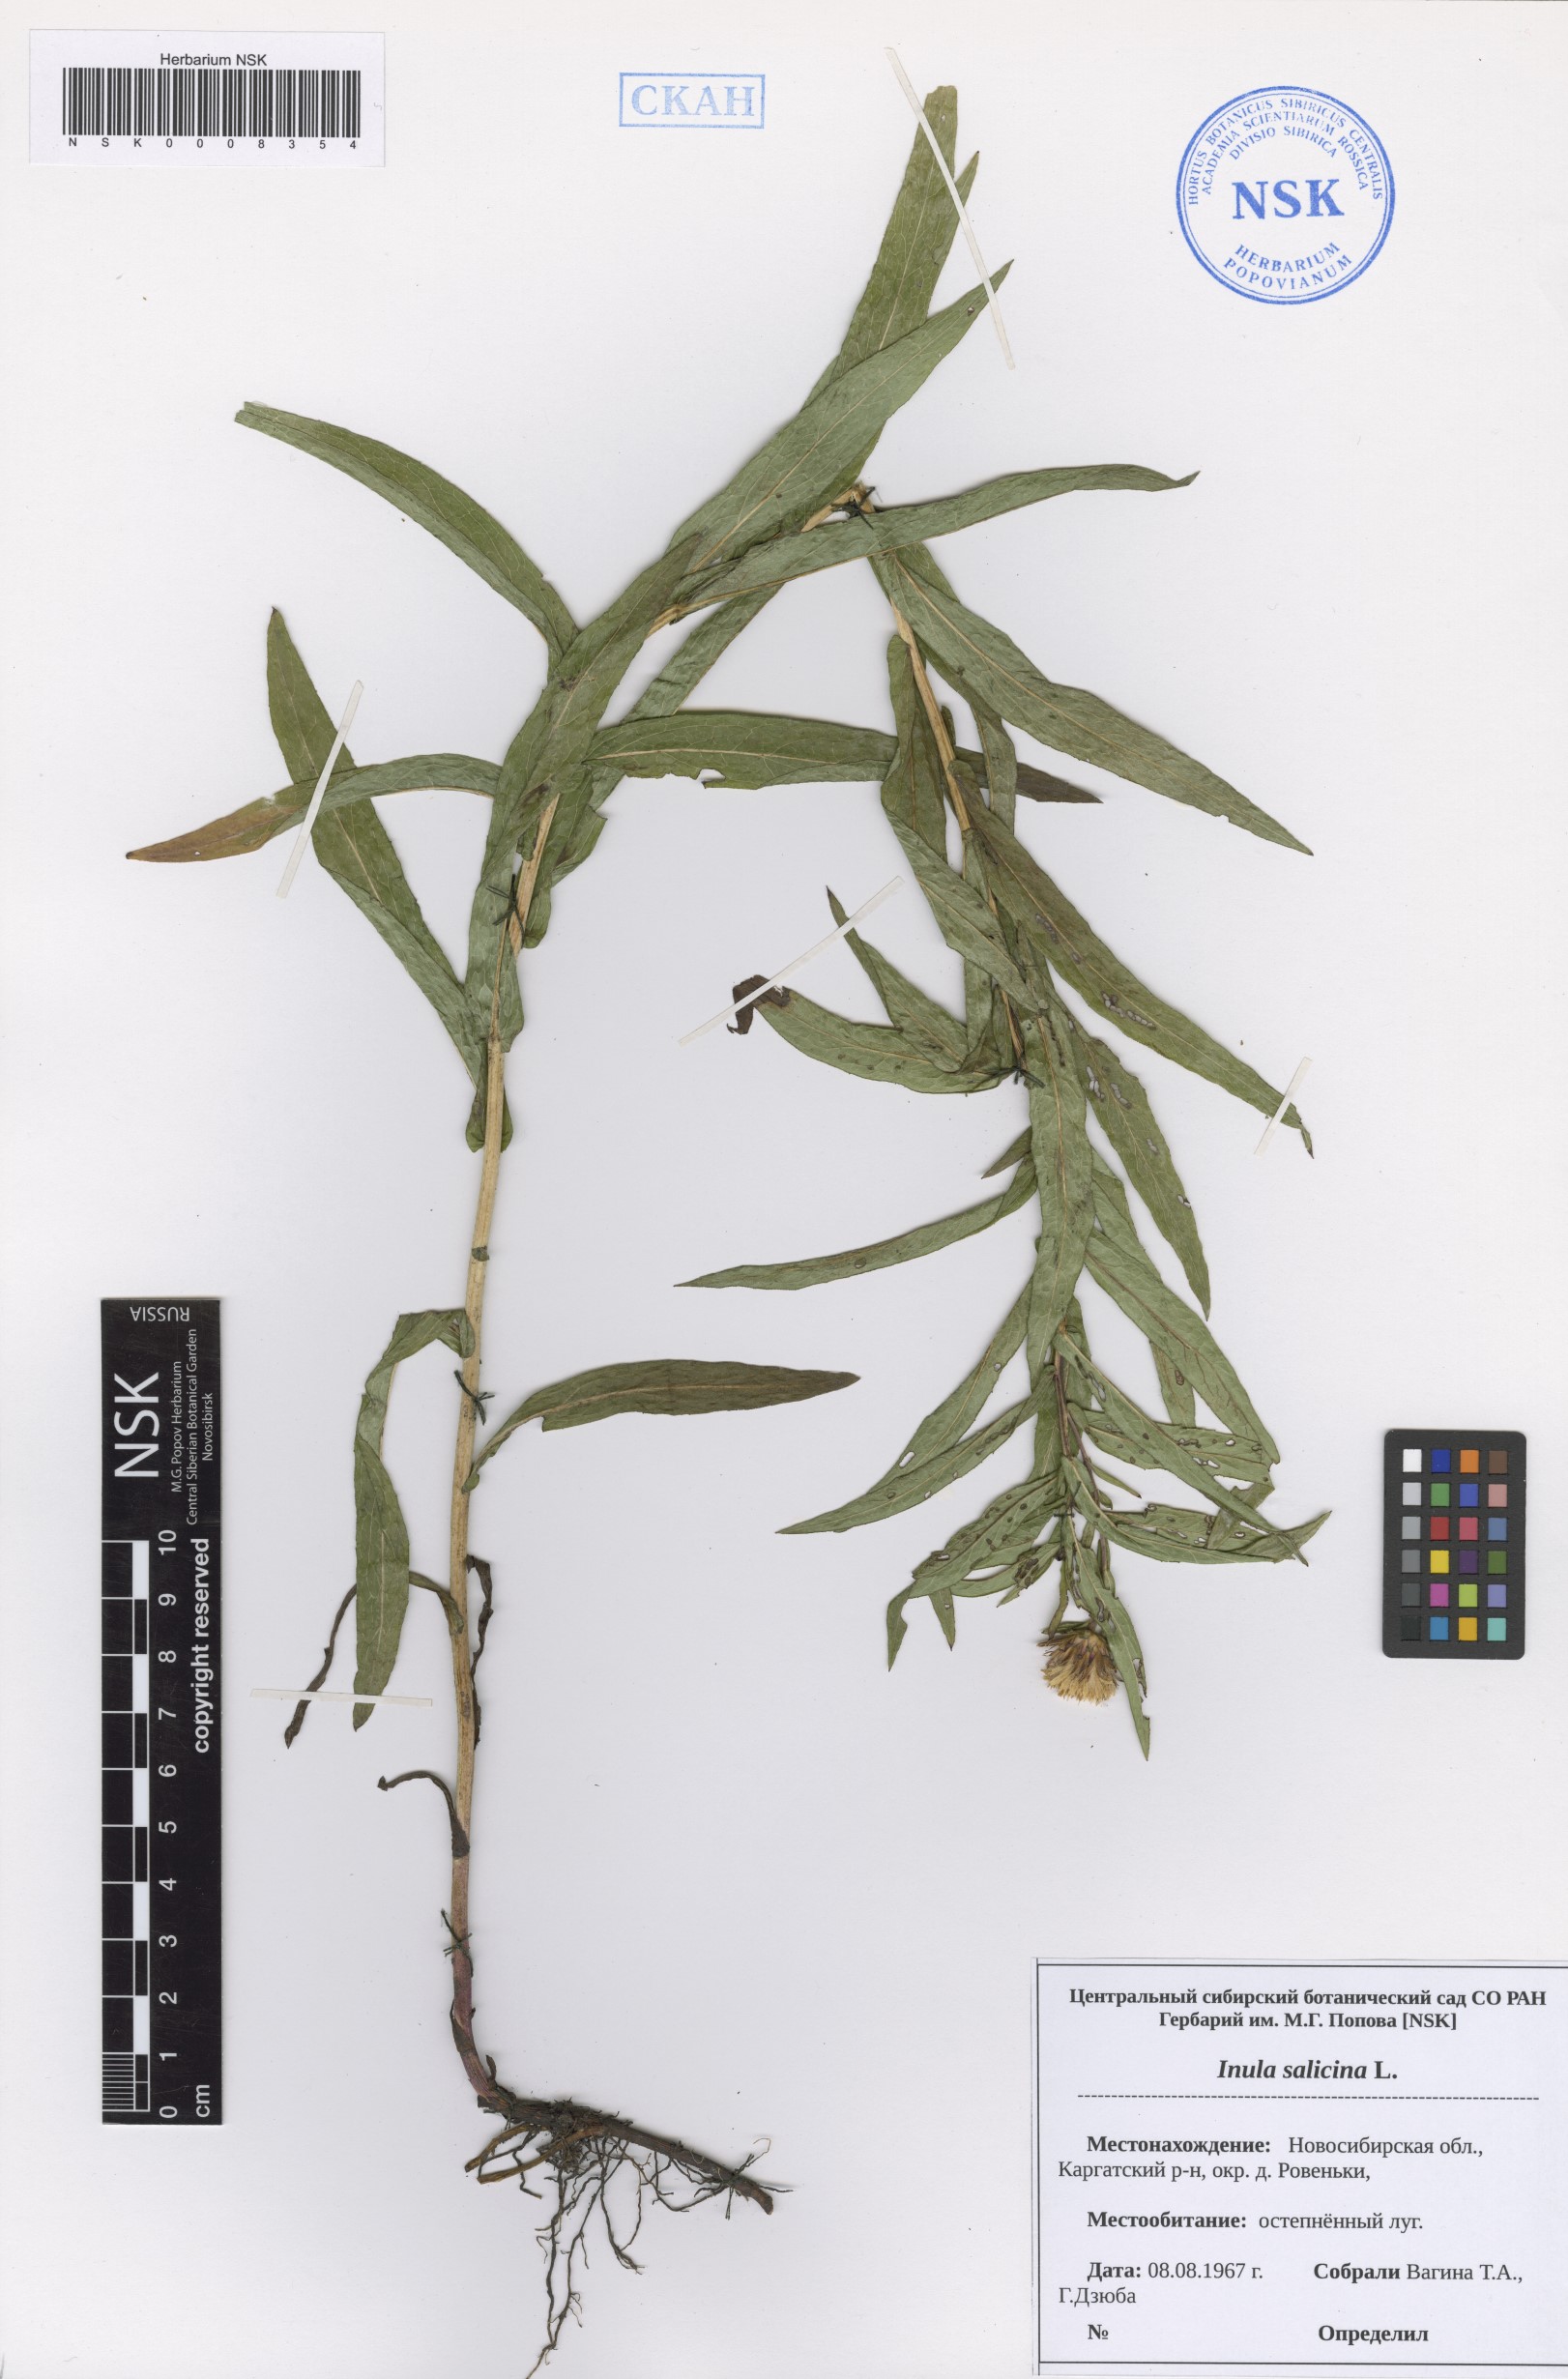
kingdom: Plantae
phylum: Tracheophyta
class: Magnoliopsida
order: Asterales
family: Asteraceae
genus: Pentanema
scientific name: Pentanema salicinum
